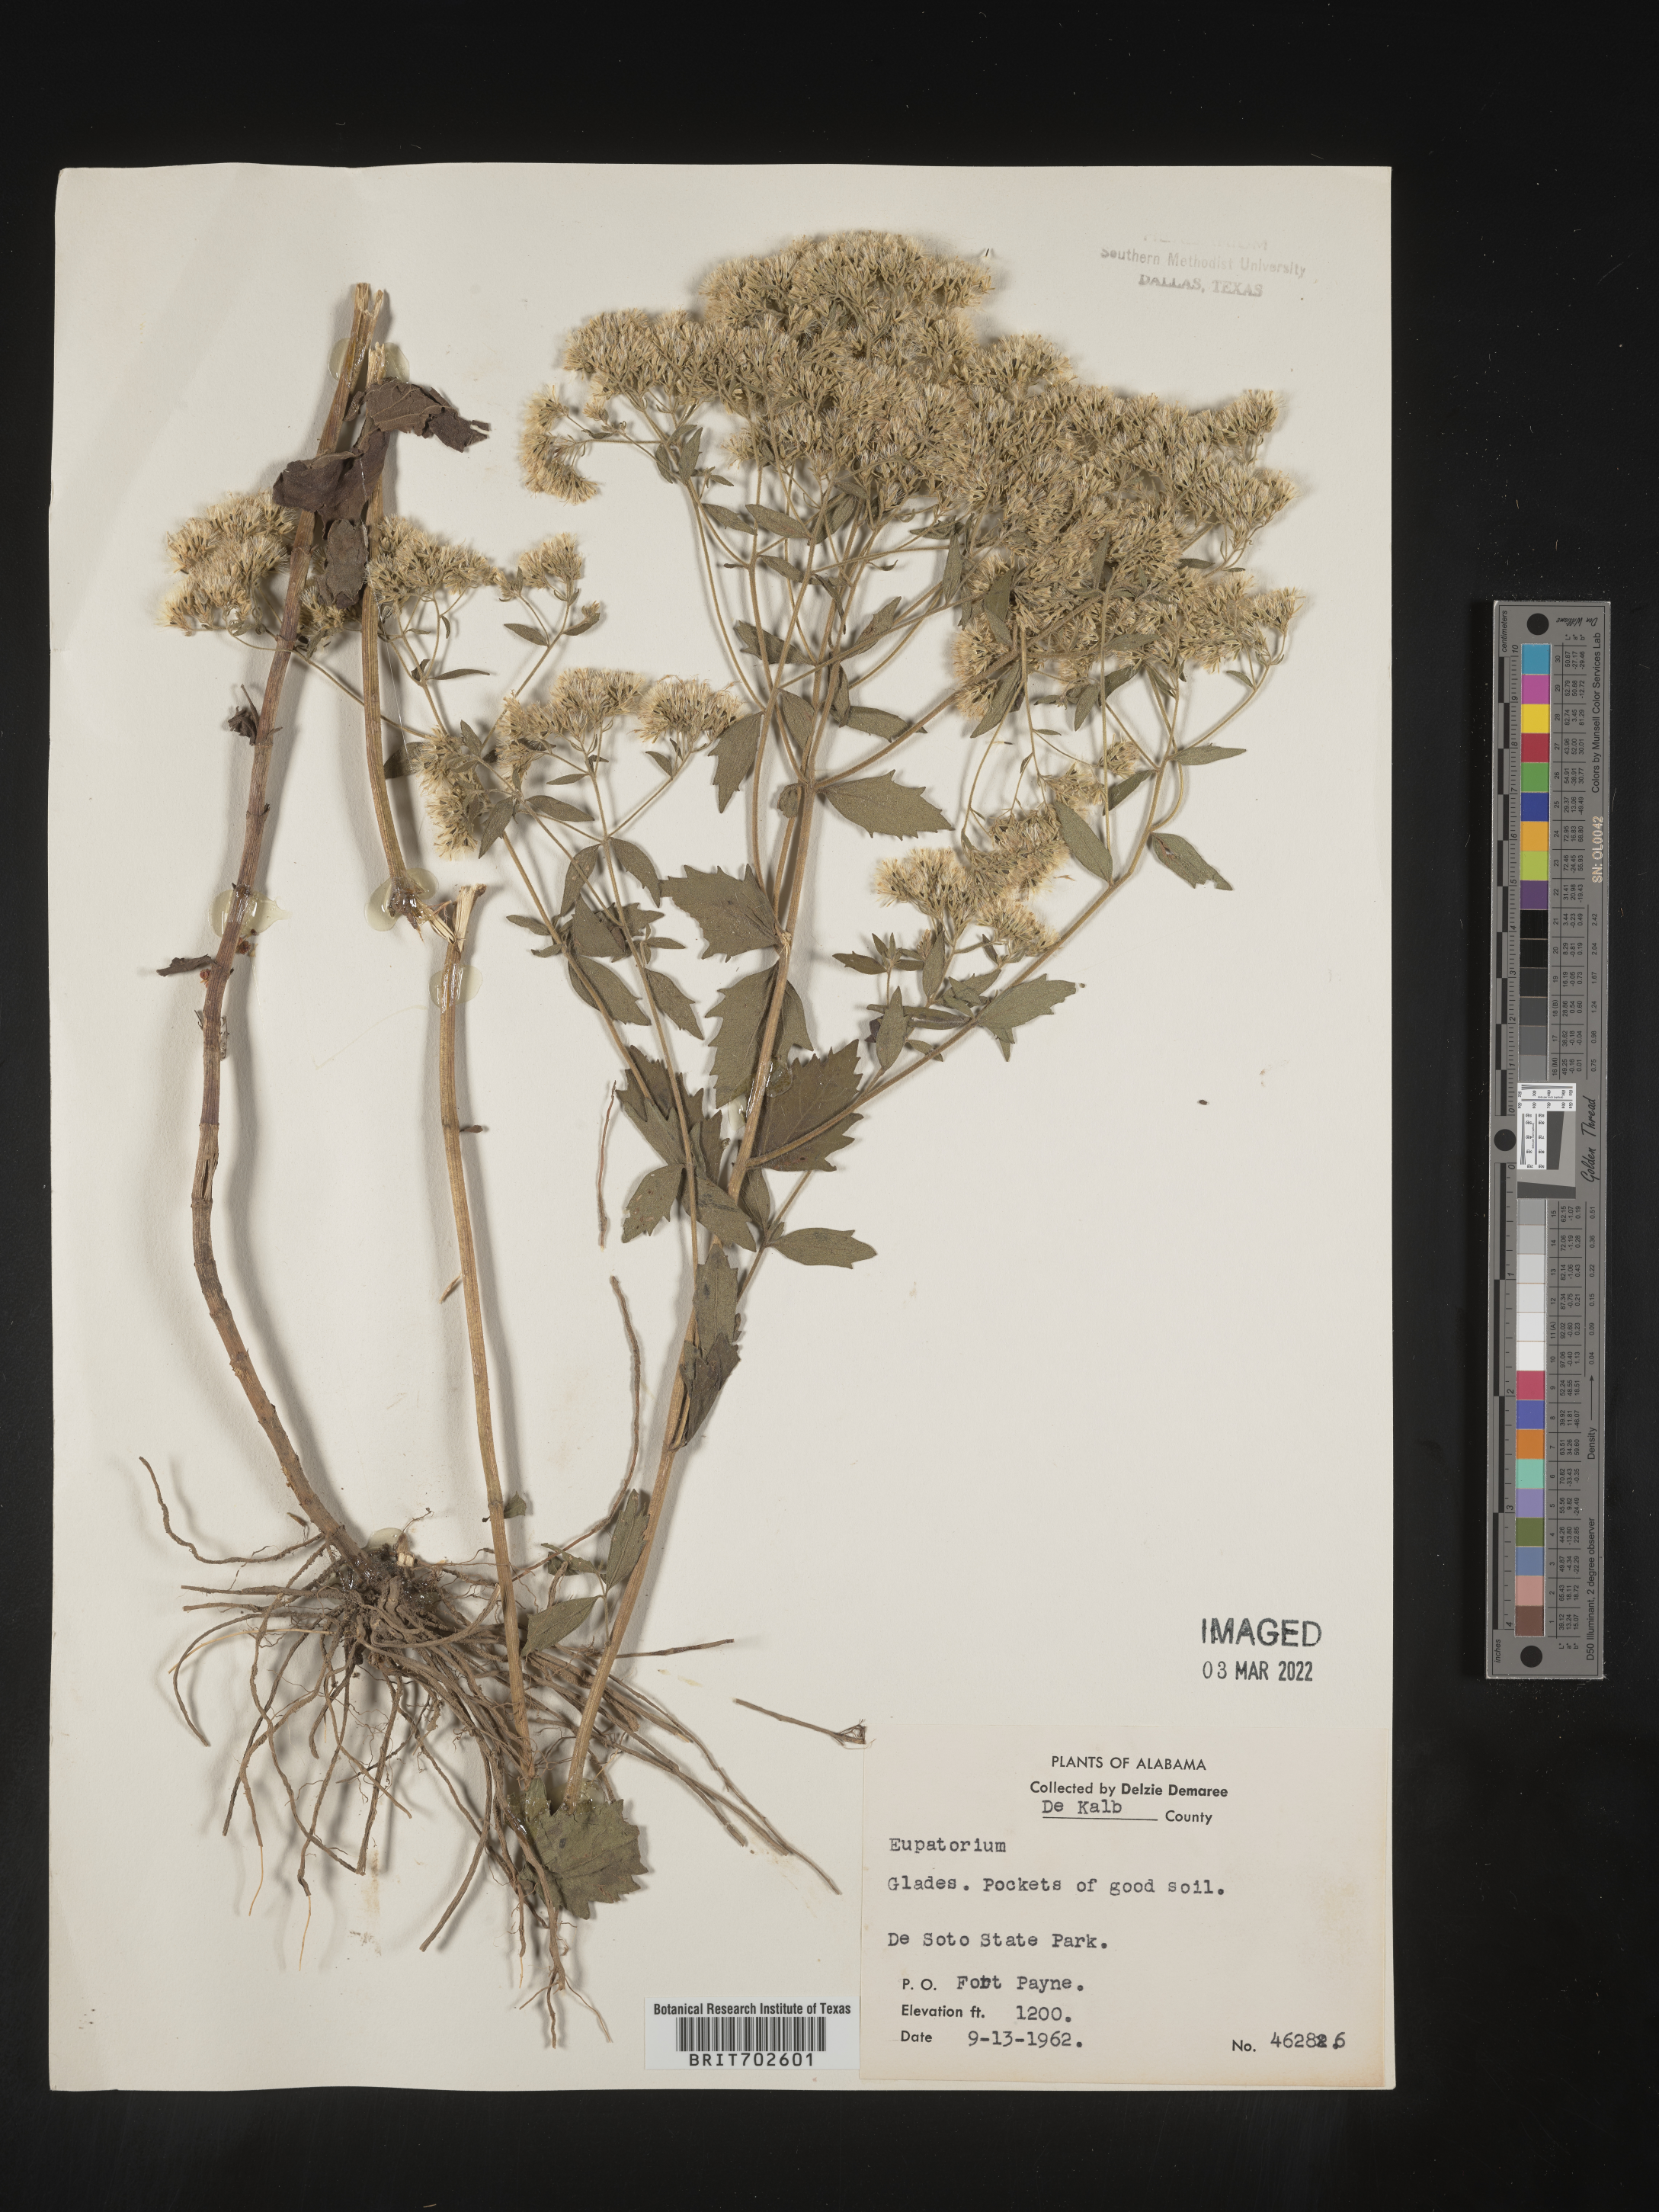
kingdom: Plantae
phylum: Tracheophyta
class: Magnoliopsida
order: Asterales
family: Asteraceae
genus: Eupatorium
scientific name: Eupatorium
